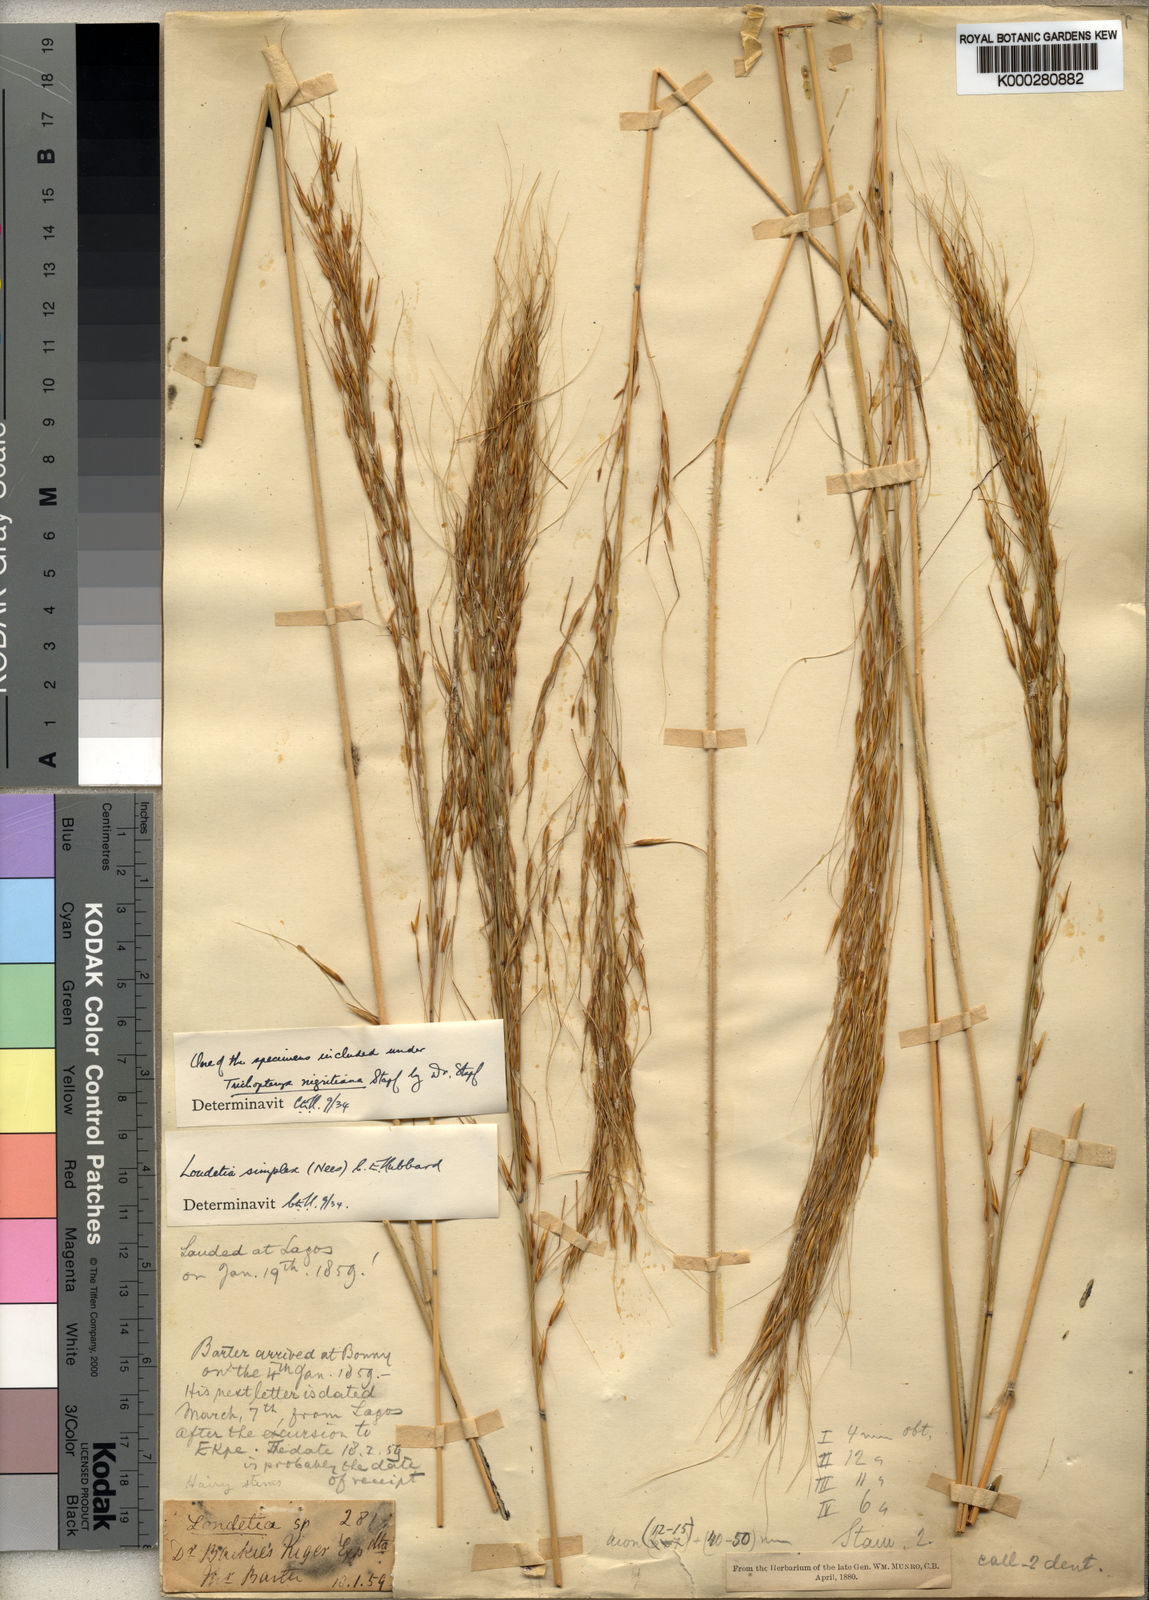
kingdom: Plantae
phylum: Tracheophyta
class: Liliopsida
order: Poales
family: Poaceae
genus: Loudetia
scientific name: Loudetia simplex
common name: Common russet grass
